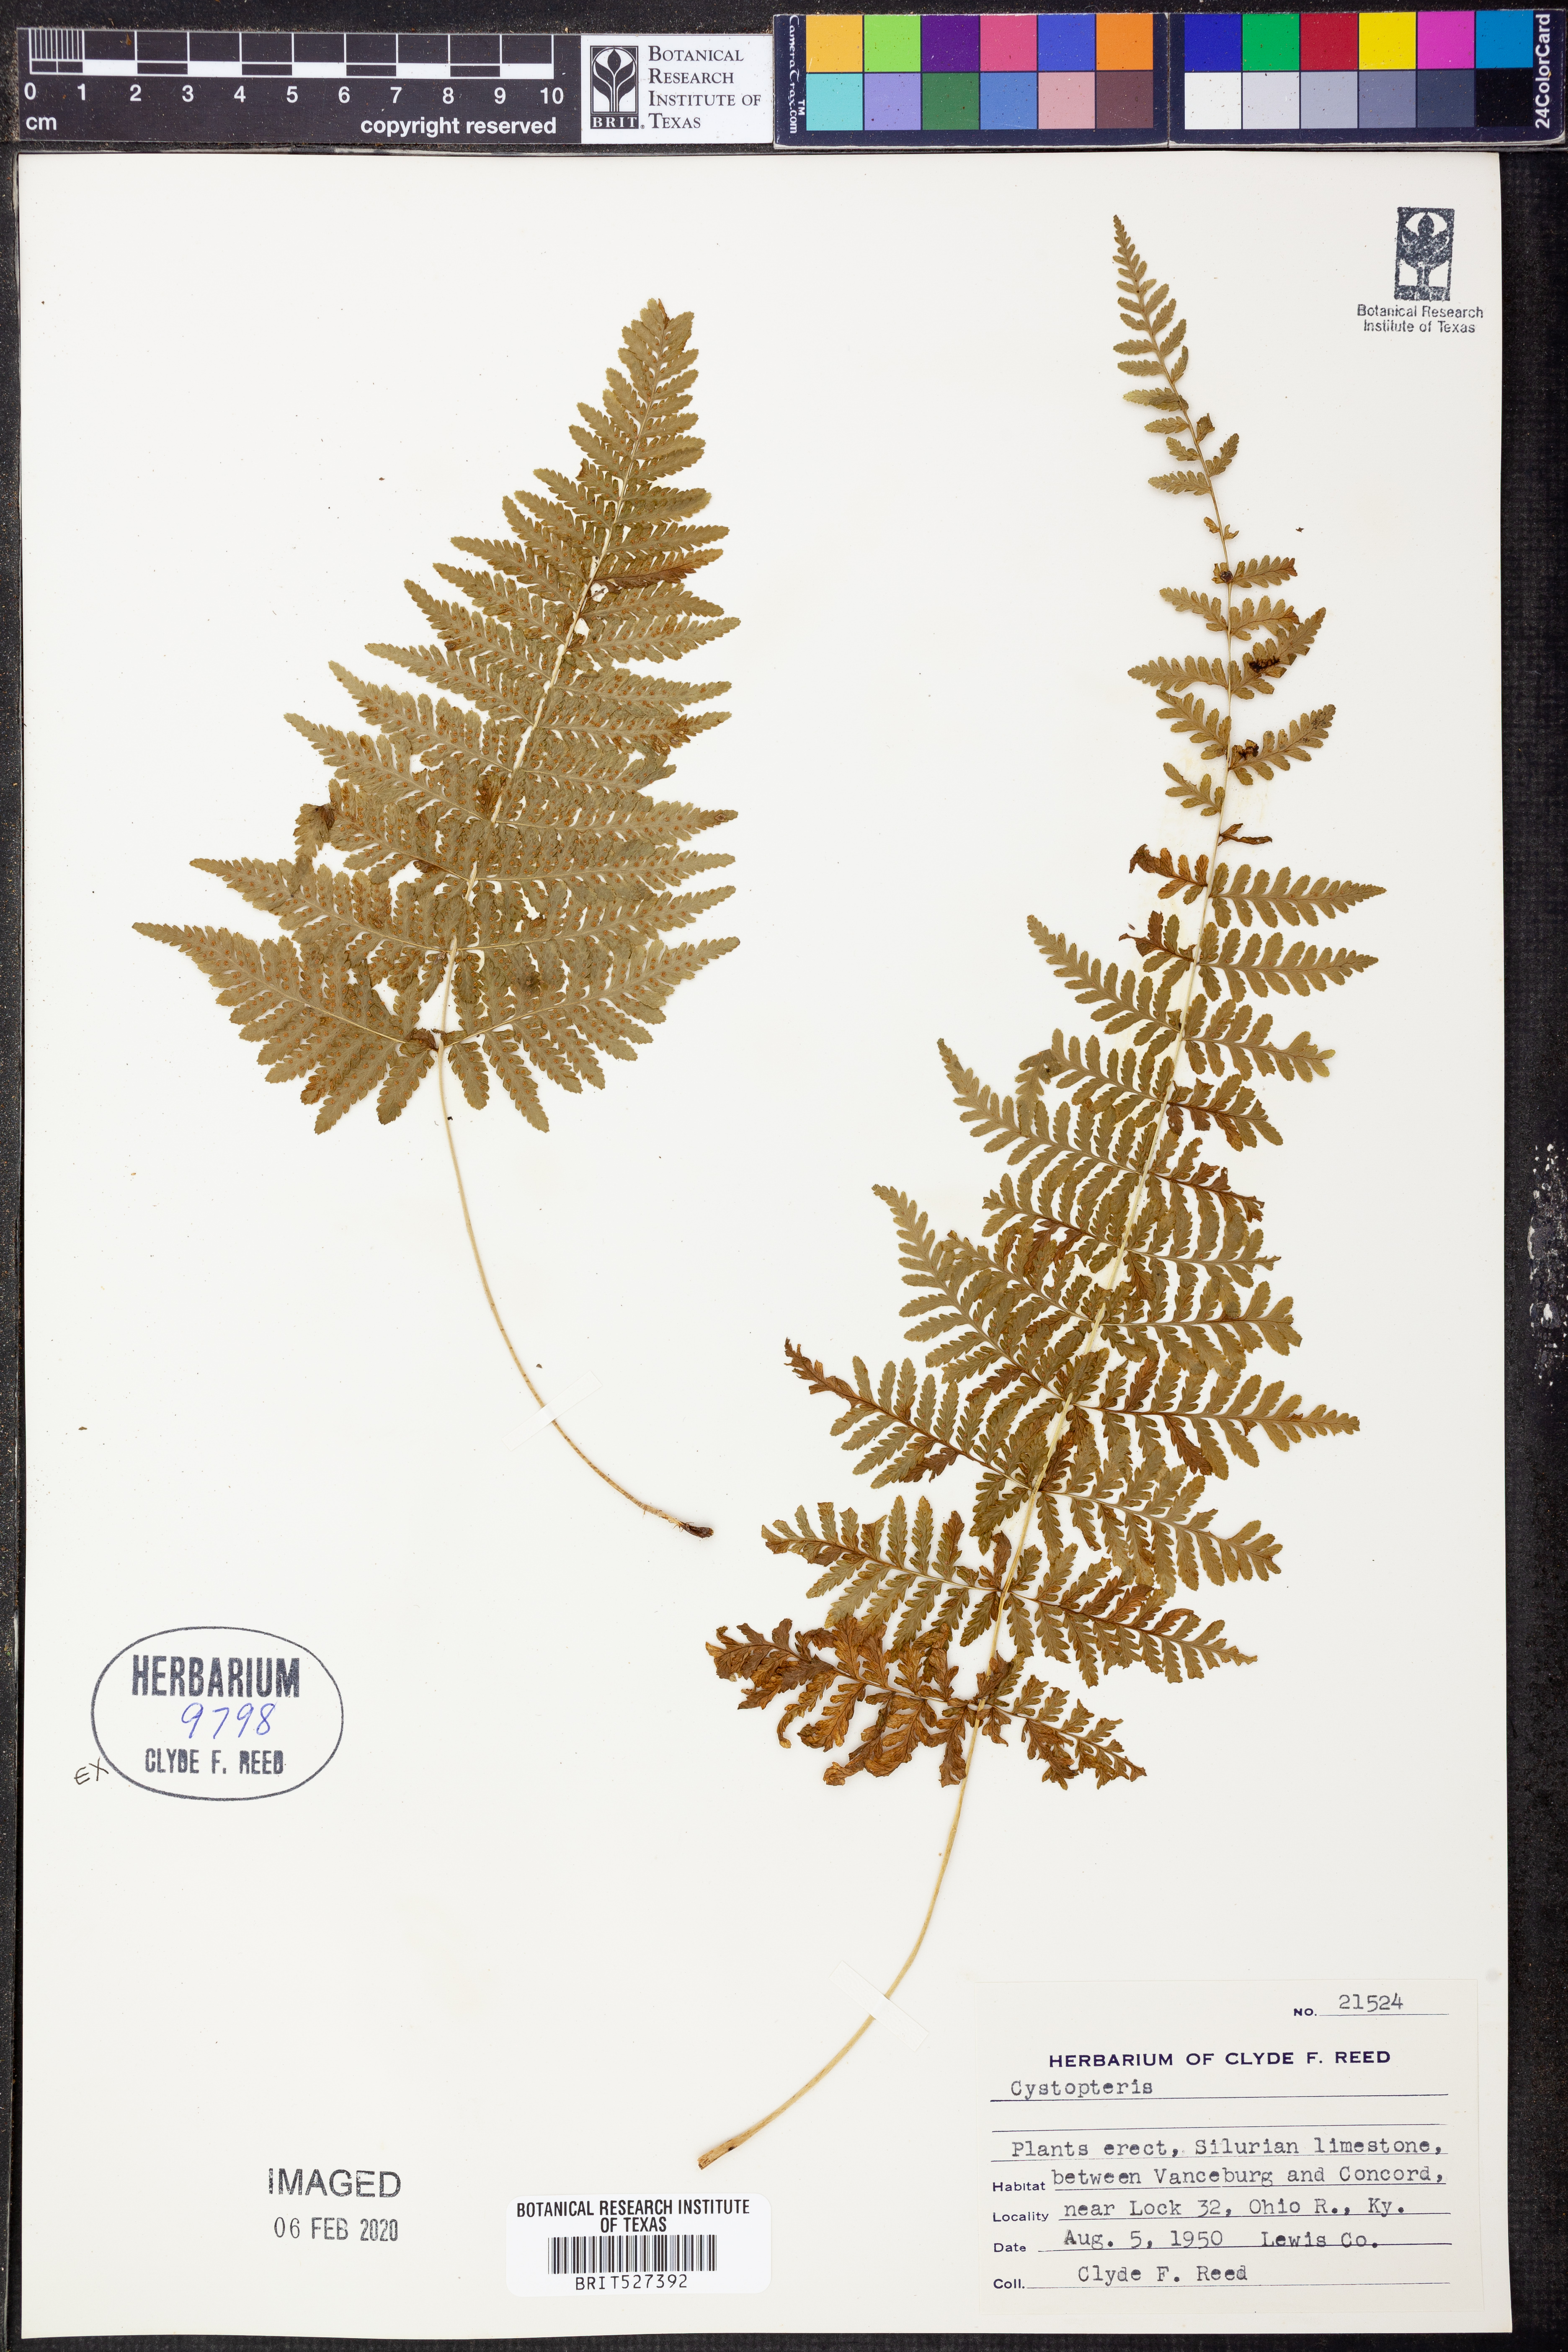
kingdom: Plantae
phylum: Tracheophyta
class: Polypodiopsida
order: Polypodiales
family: Cystopteridaceae
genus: Cystopteris
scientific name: Cystopteris apiiformis
